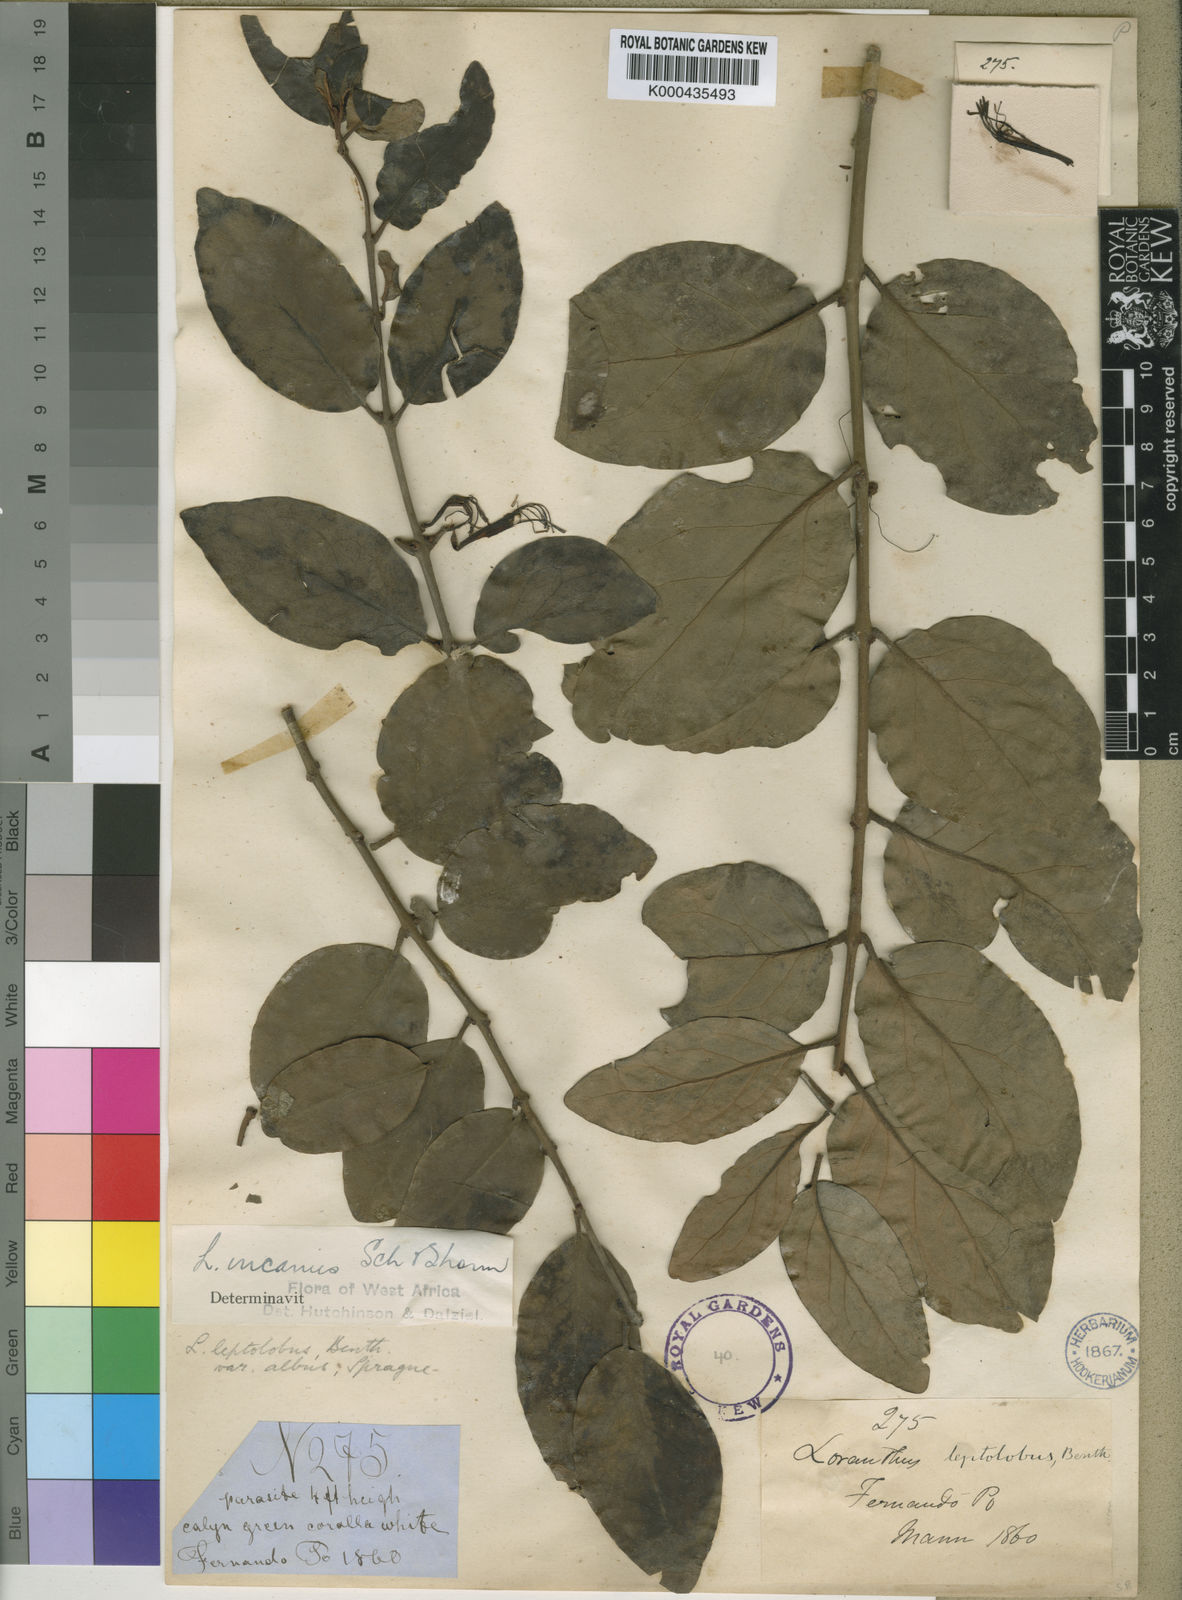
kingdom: Plantae
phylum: Tracheophyta
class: Magnoliopsida
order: Santalales
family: Loranthaceae
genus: Phragmanthera
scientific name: Phragmanthera capitata
